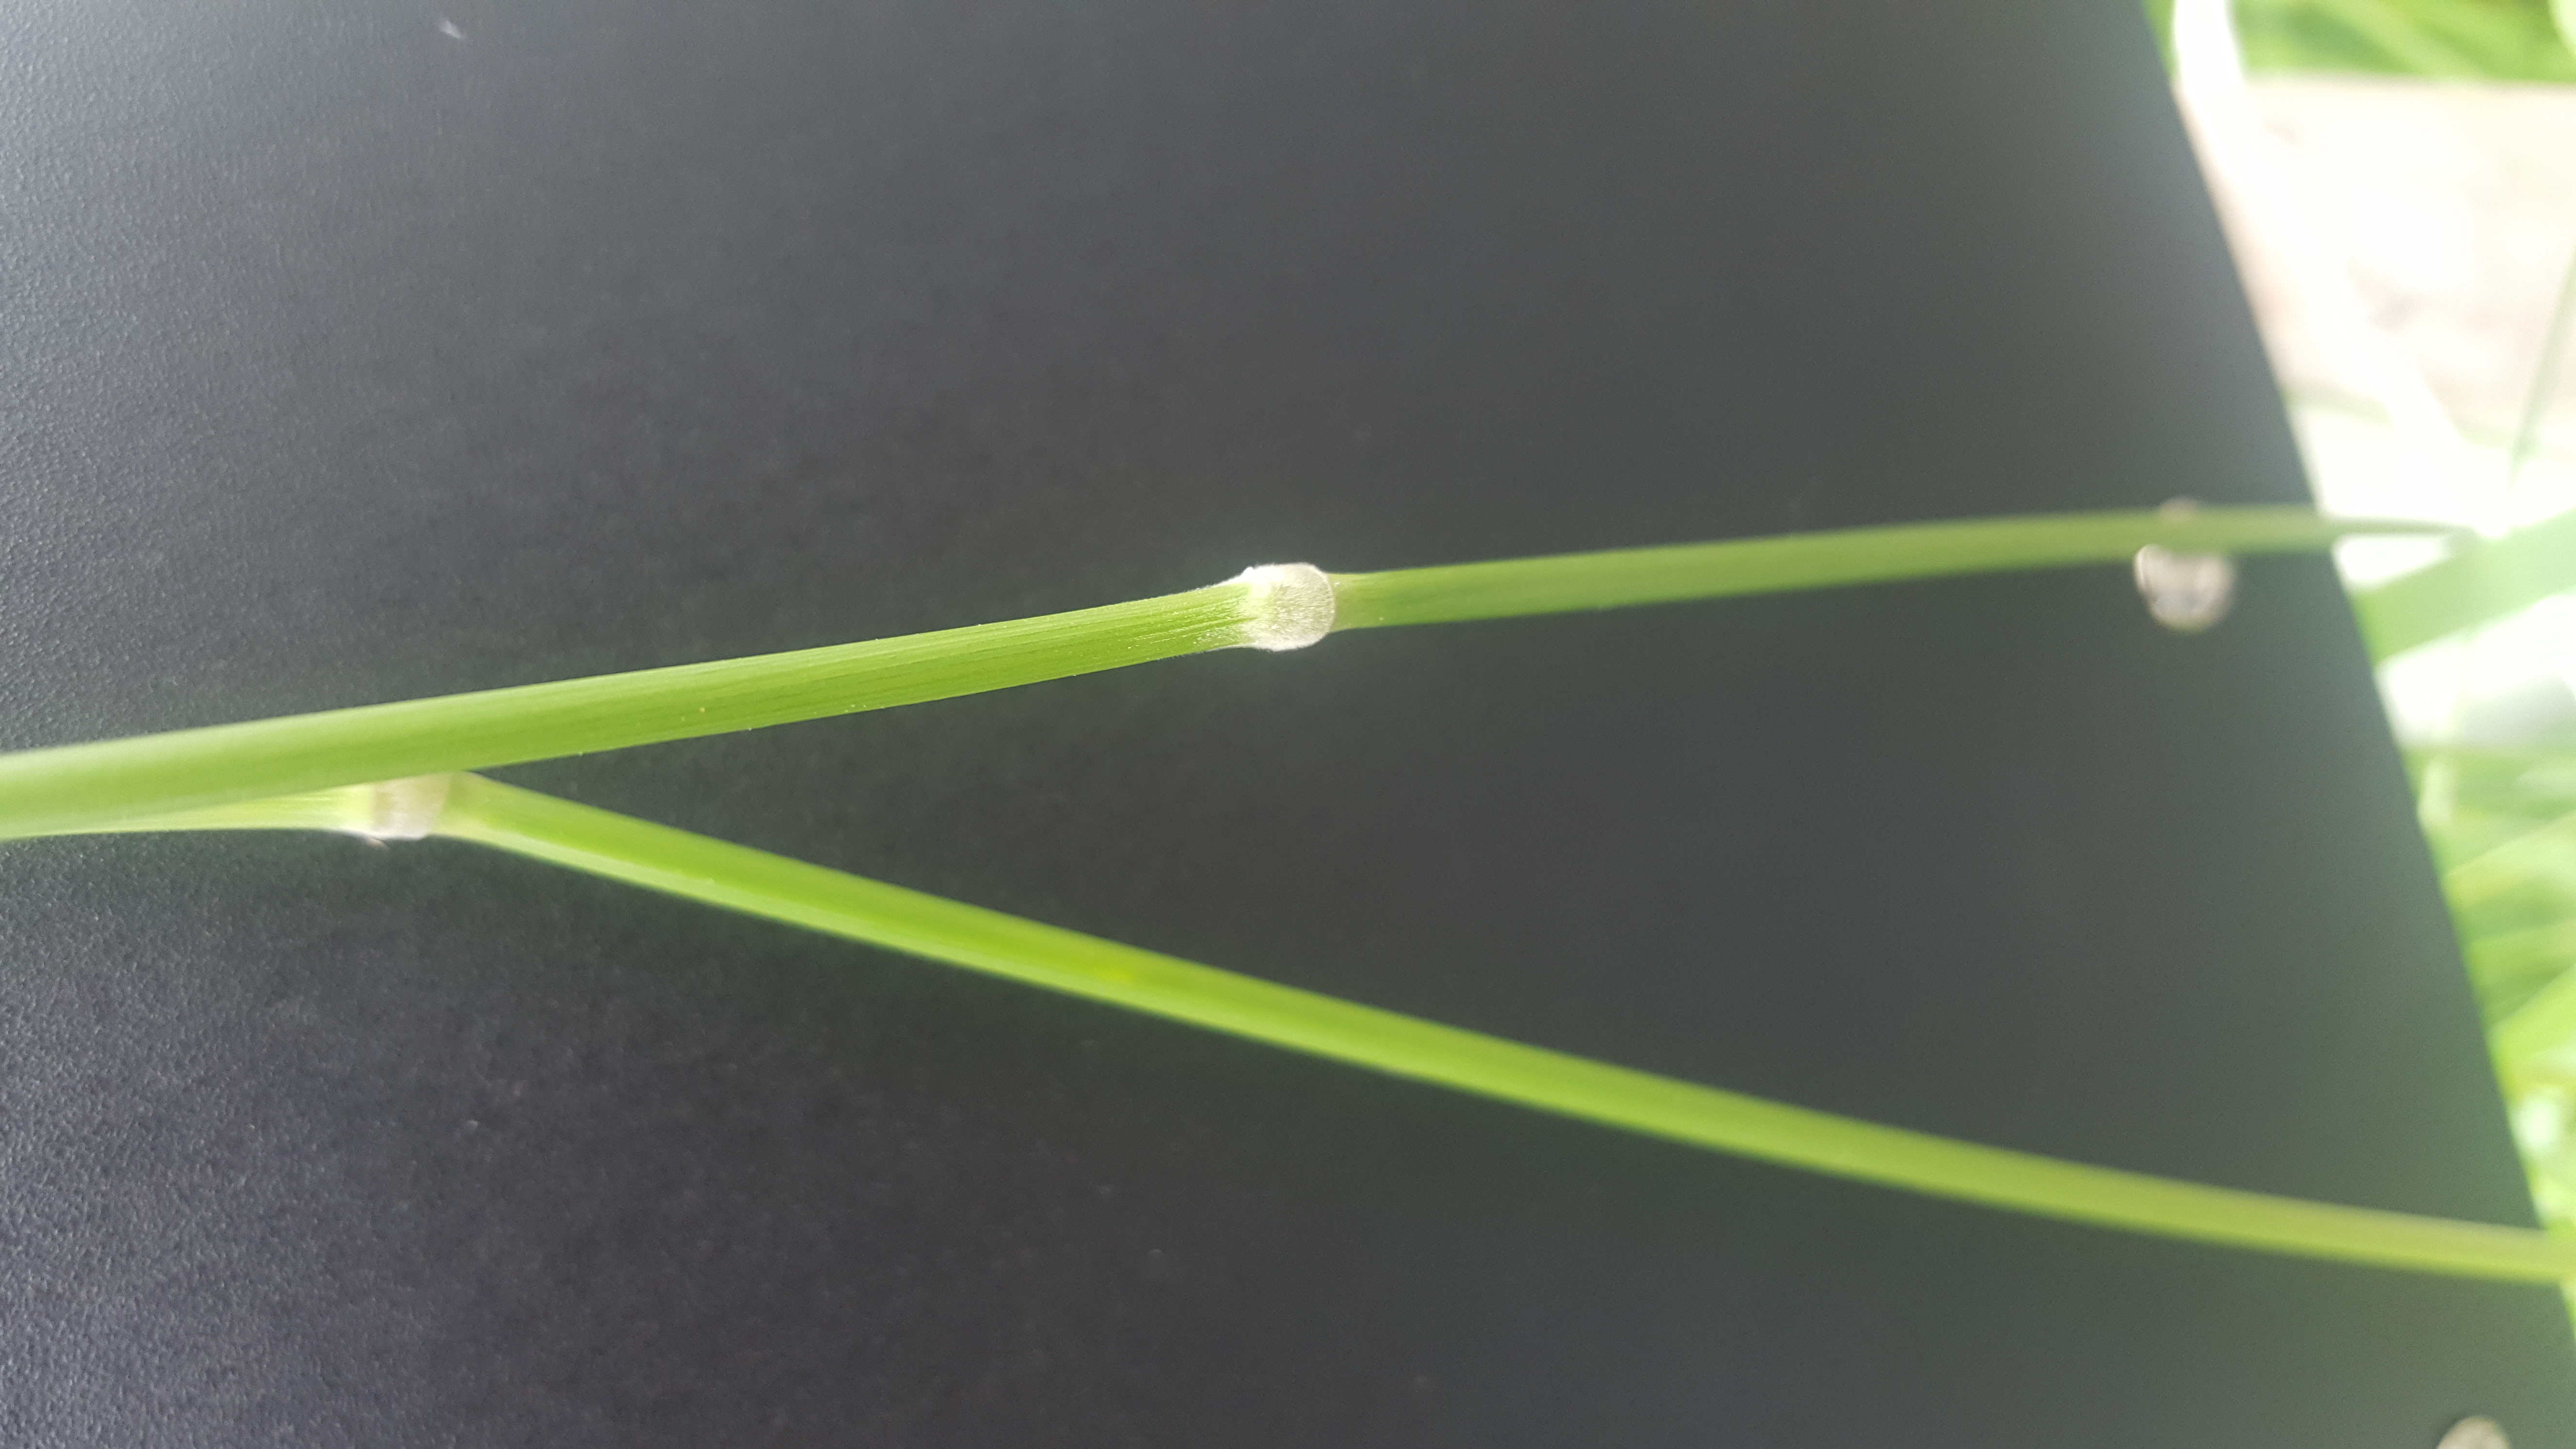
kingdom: Plantae
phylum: Tracheophyta
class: Liliopsida
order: Poales
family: Poaceae
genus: Hordeum
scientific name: Hordeum bogdanii
